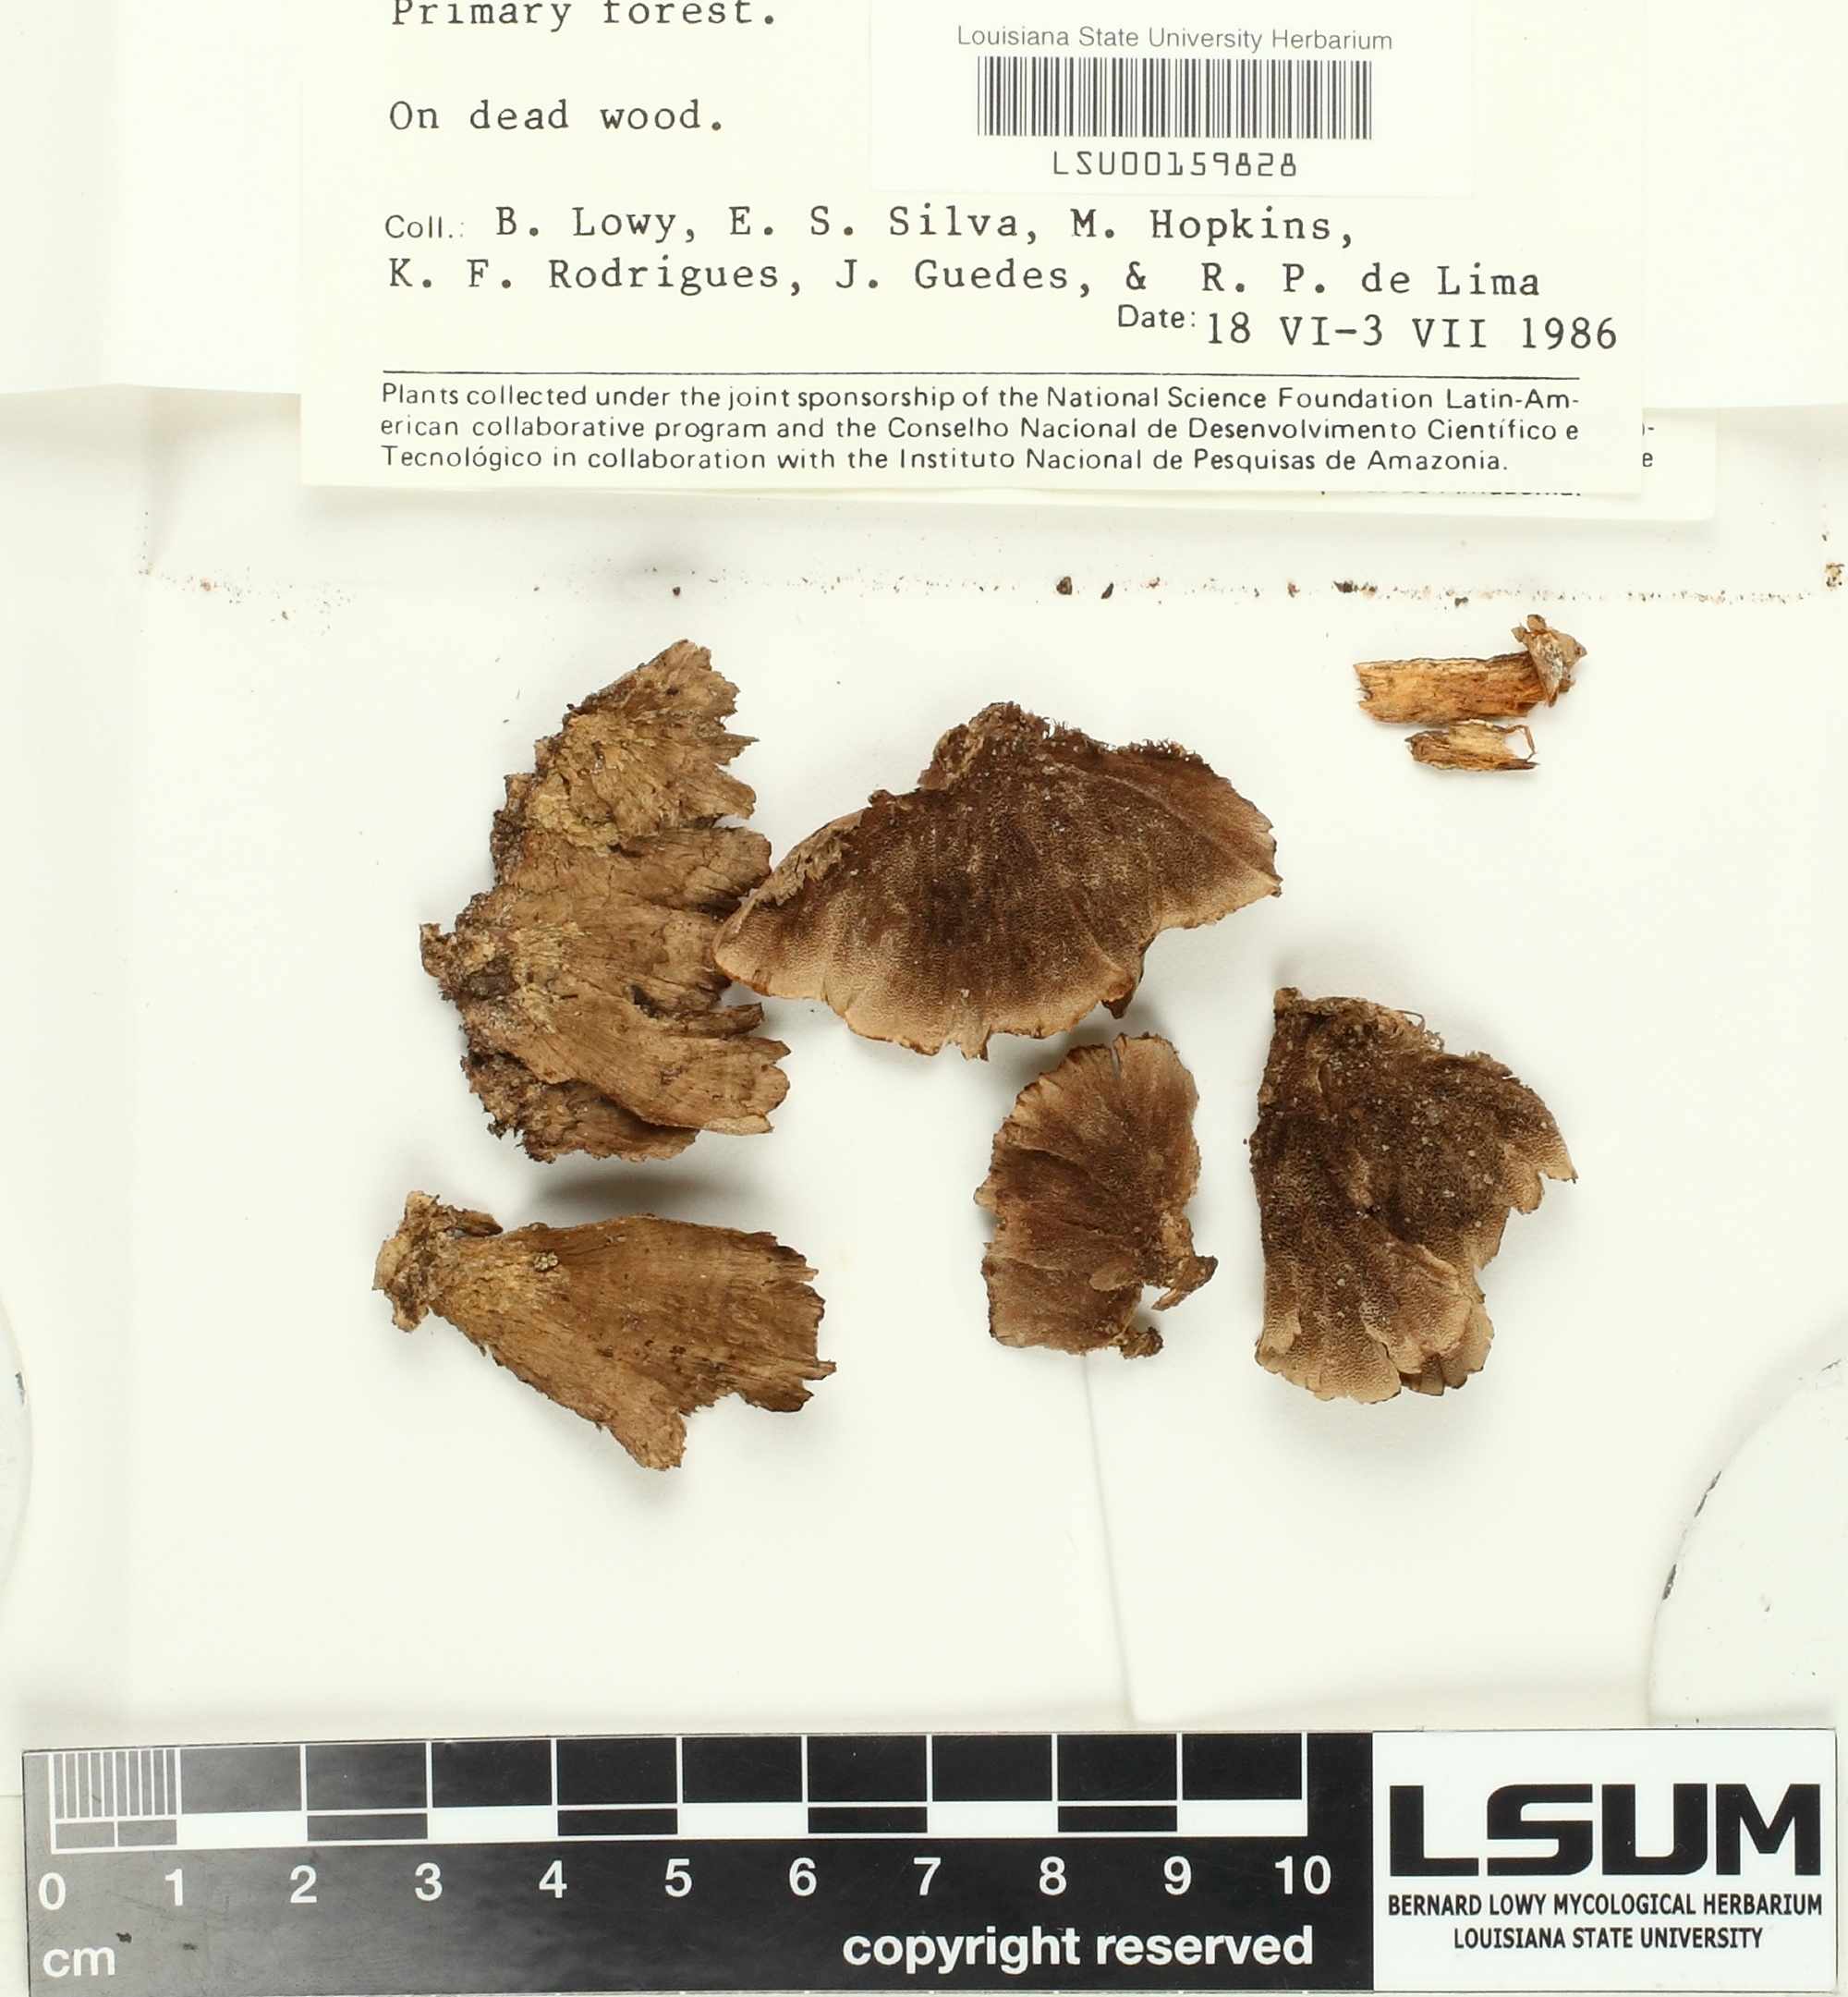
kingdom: Fungi
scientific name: Fungi
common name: Fungi
